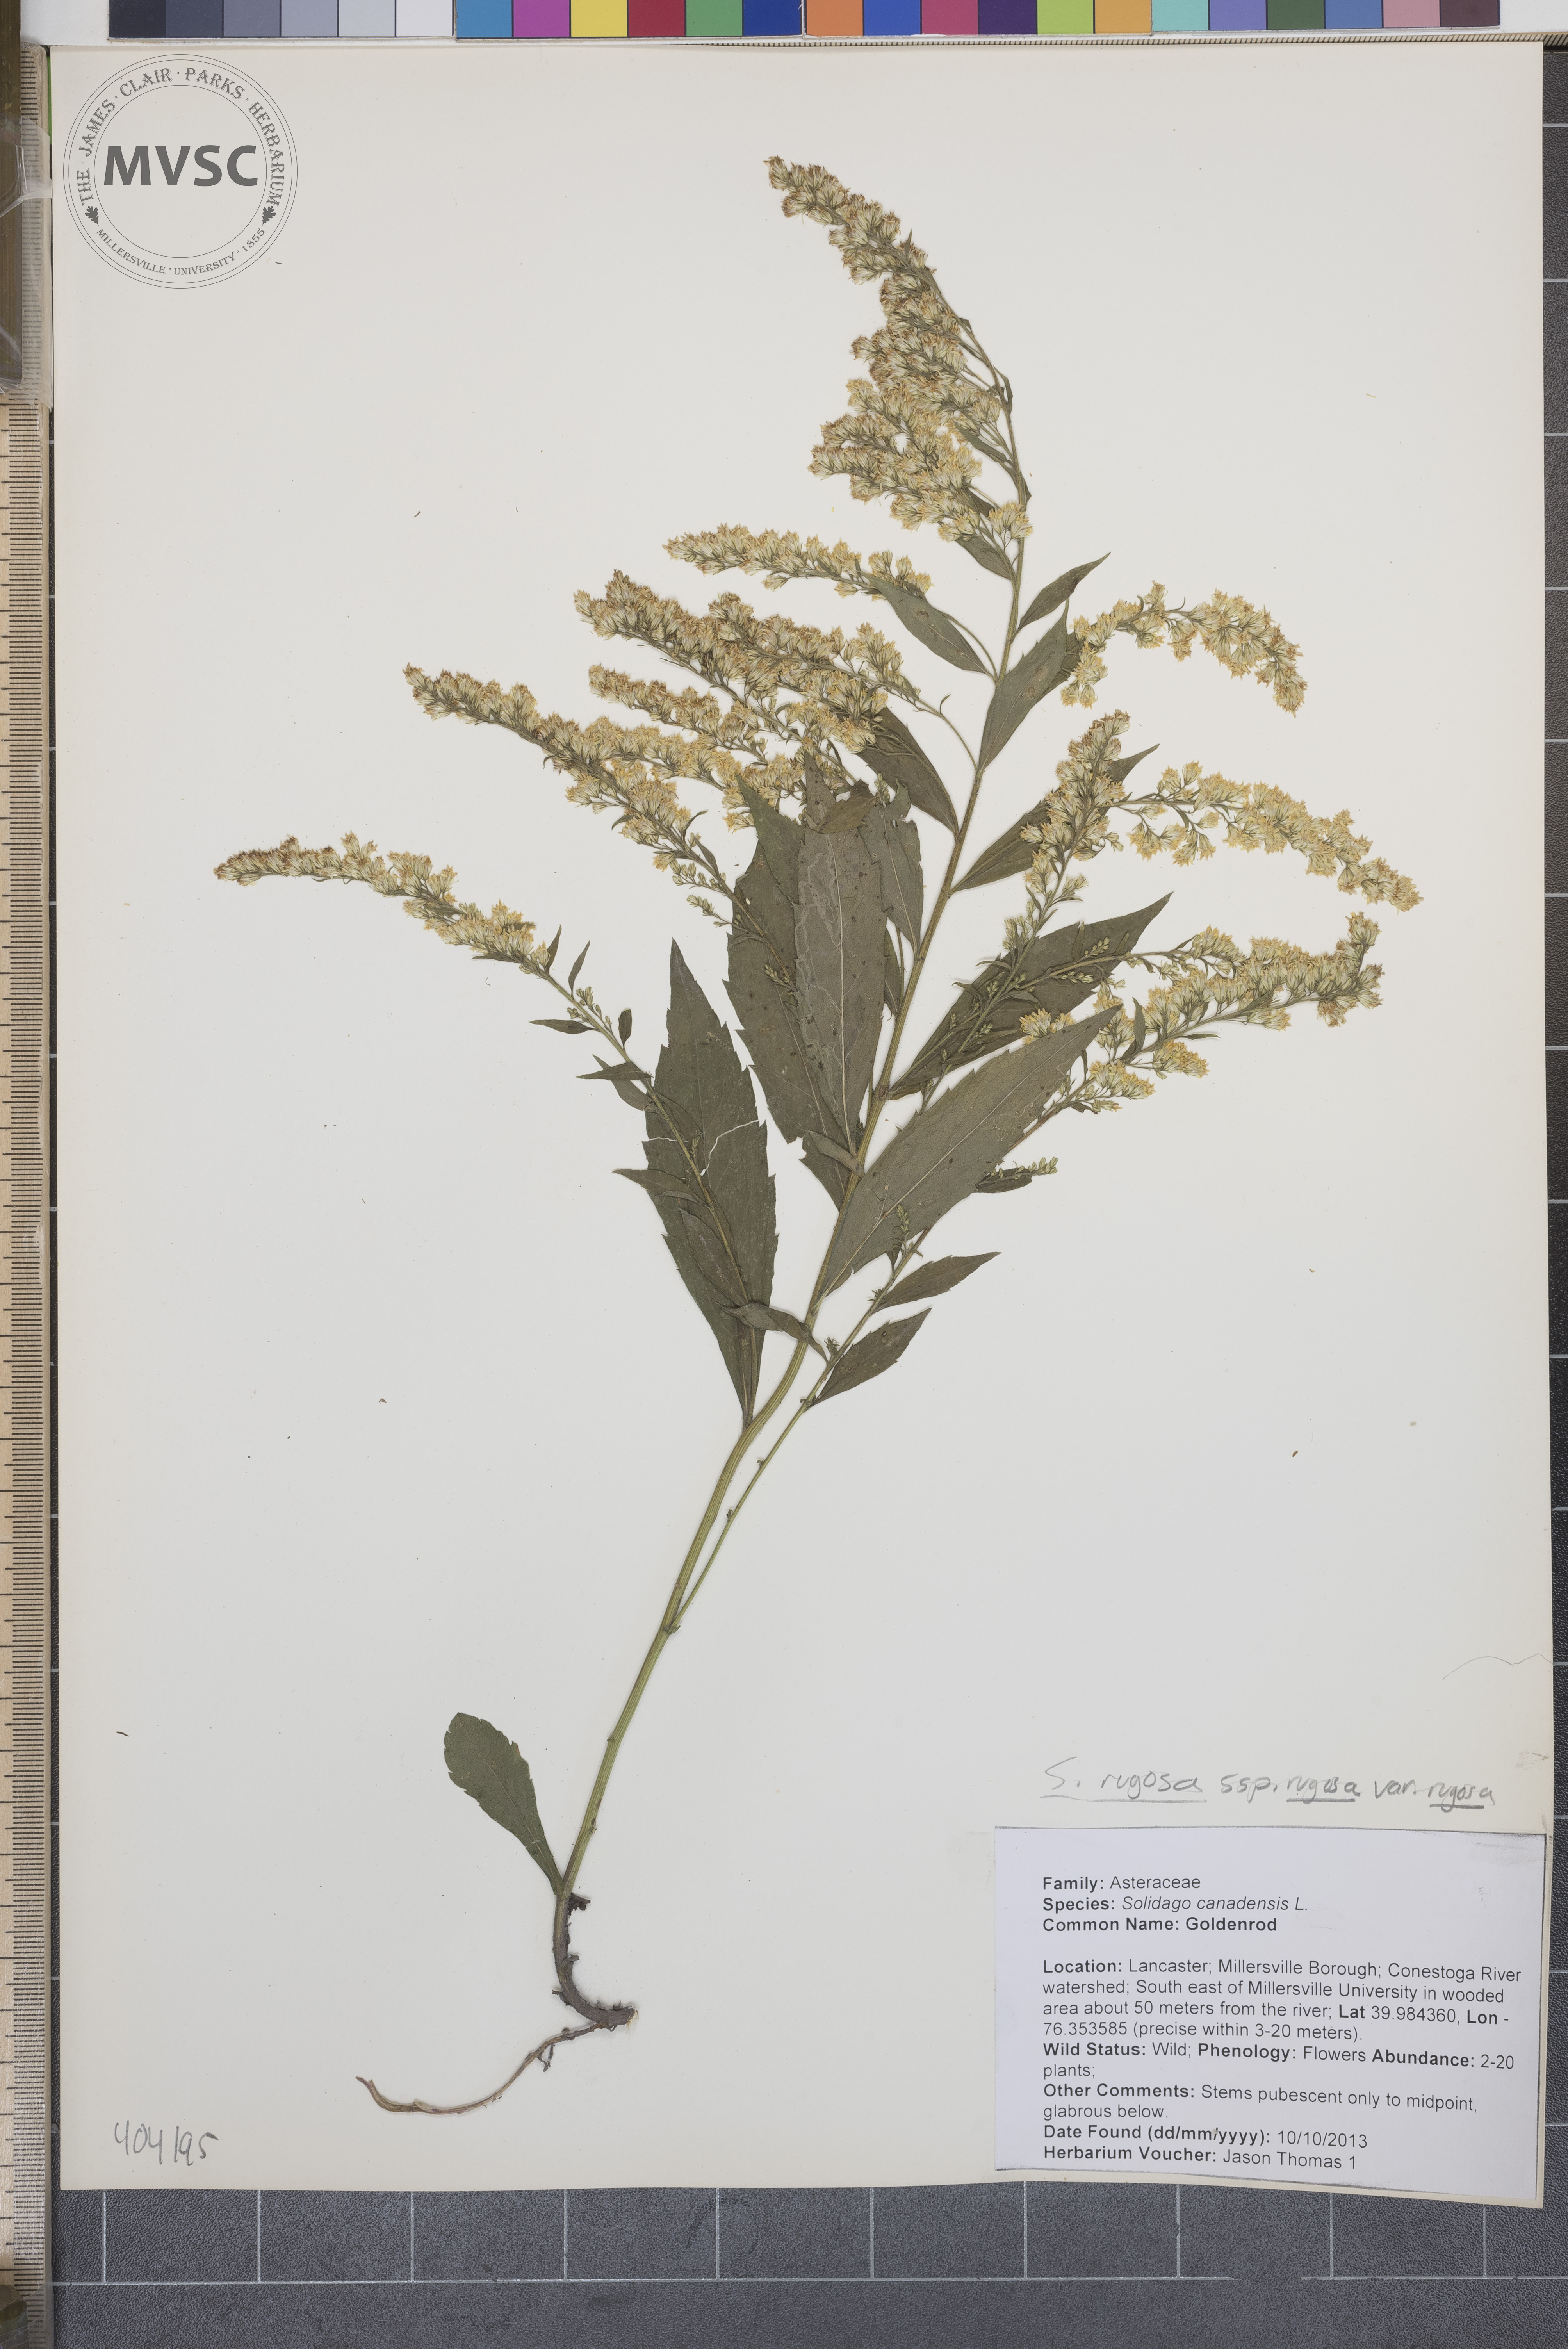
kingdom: Plantae
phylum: Tracheophyta
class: Magnoliopsida
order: Asterales
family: Asteraceae
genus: Solidago
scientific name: Solidago rugosa
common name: Goldenrod
